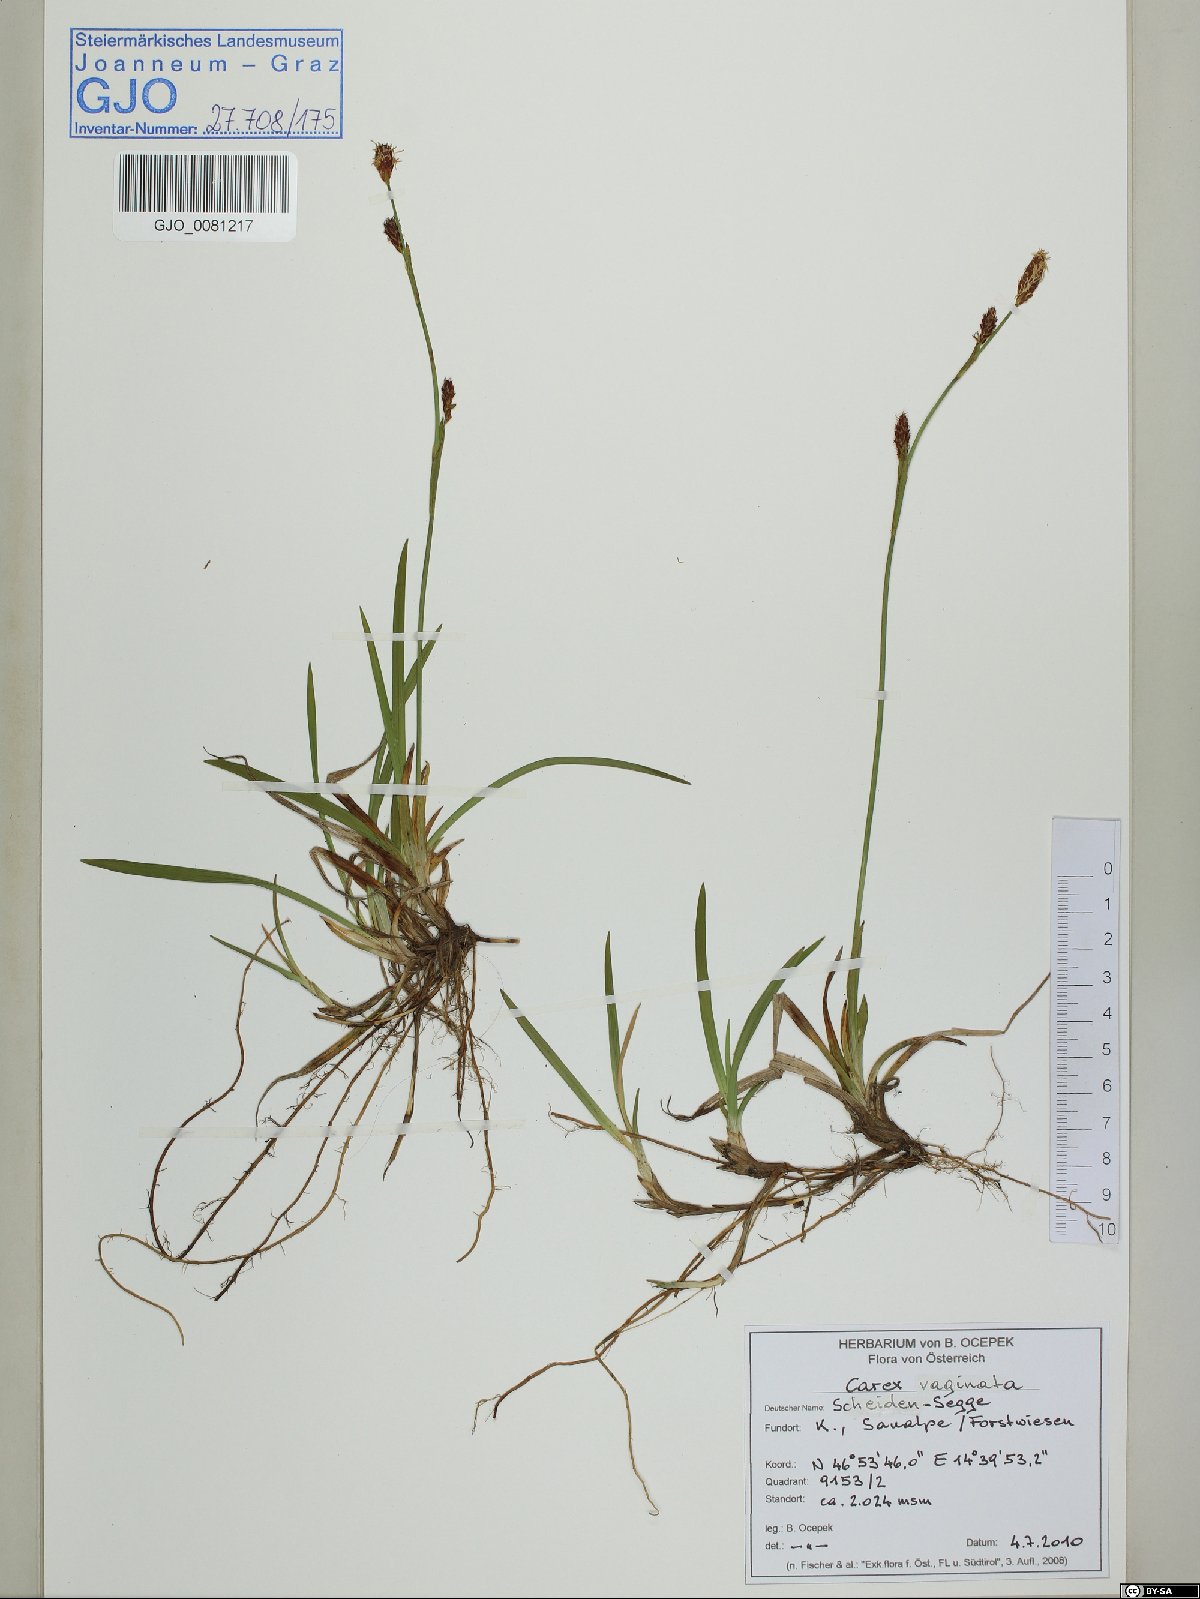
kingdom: Plantae
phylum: Tracheophyta
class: Liliopsida
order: Poales
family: Cyperaceae
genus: Carex
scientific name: Carex vaginata
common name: Sheathed sedge
